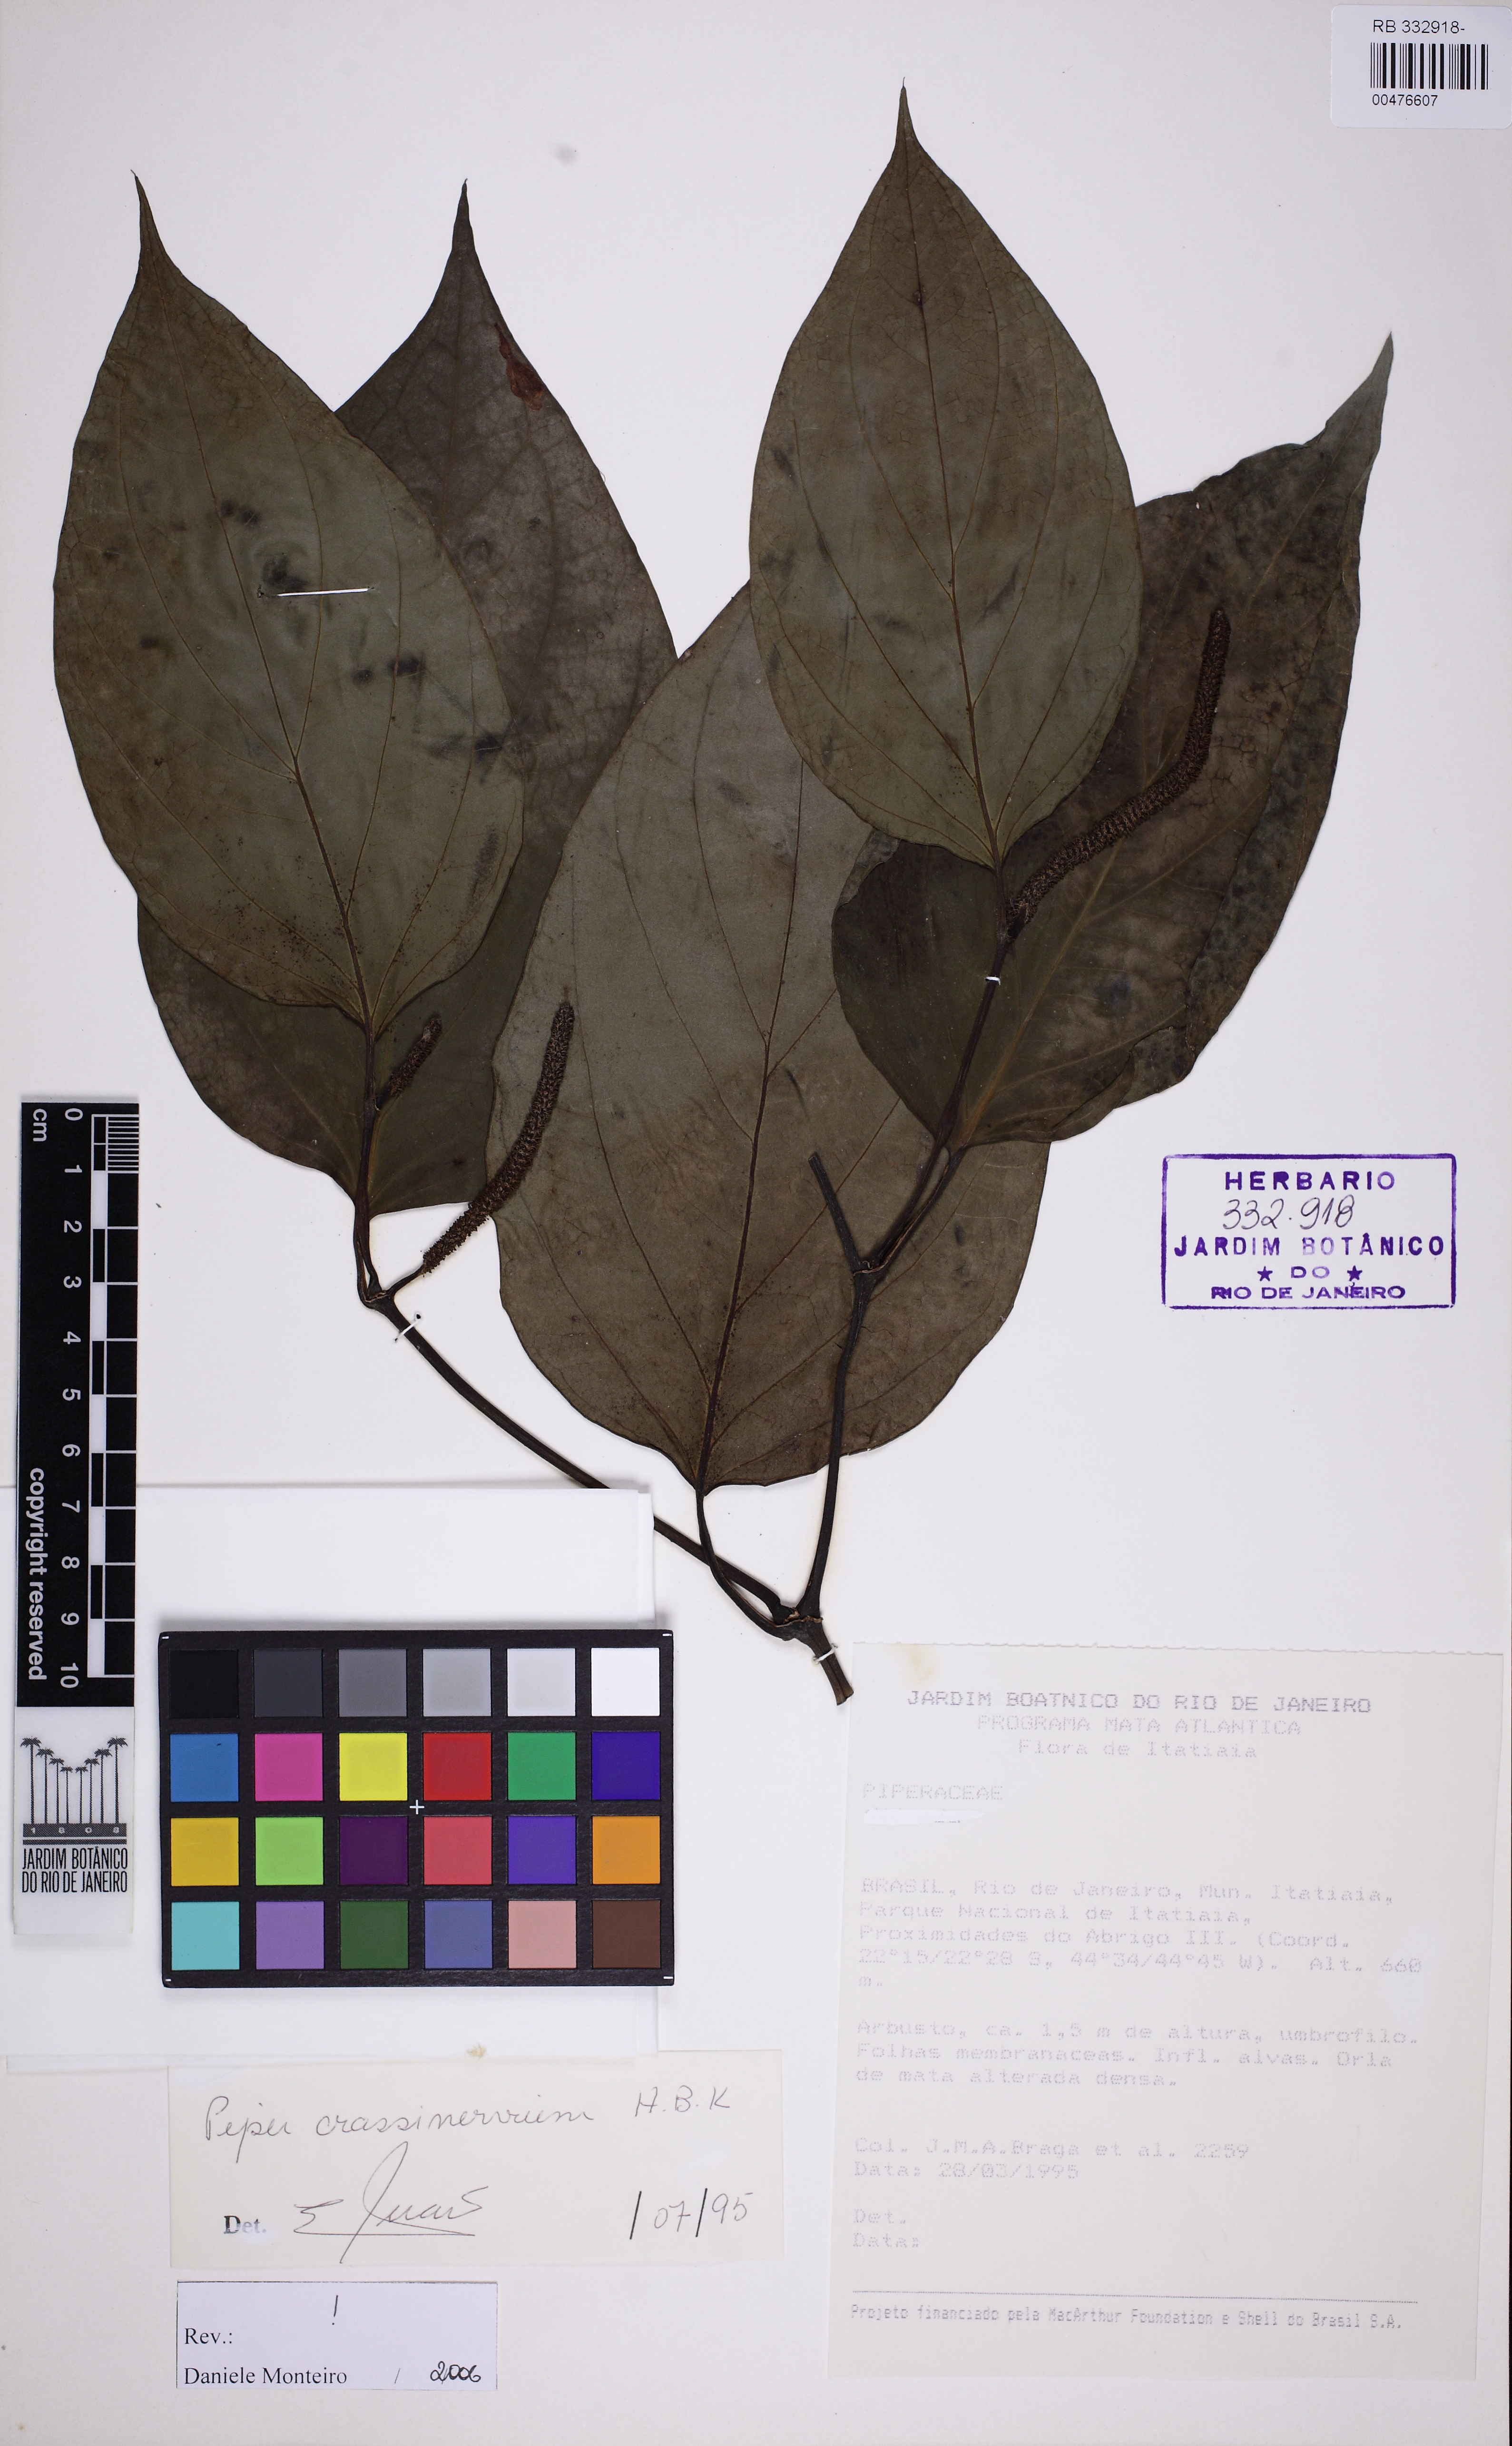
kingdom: Plantae
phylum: Tracheophyta
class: Magnoliopsida
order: Piperales
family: Piperaceae
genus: Piper
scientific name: Piper crassinervium
